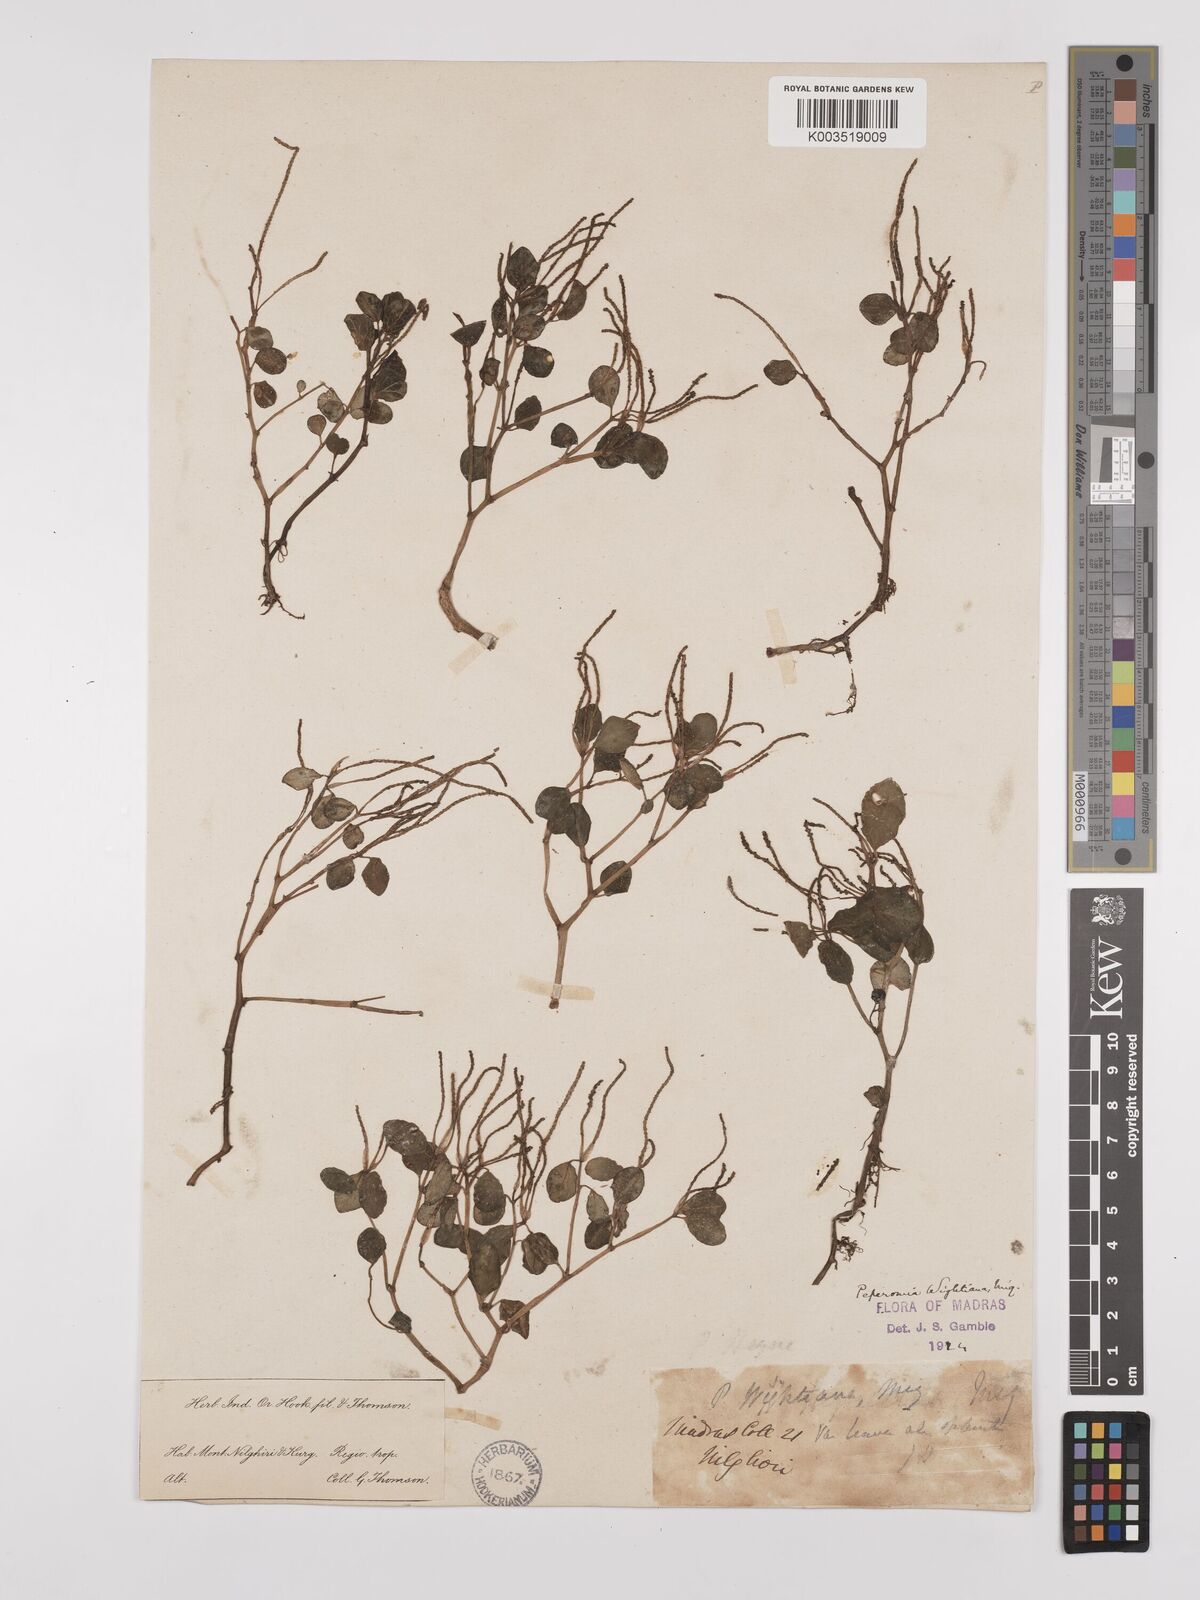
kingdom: Plantae
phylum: Tracheophyta
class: Magnoliopsida
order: Piperales
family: Piperaceae
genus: Peperomia
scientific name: Peperomia wightiana
